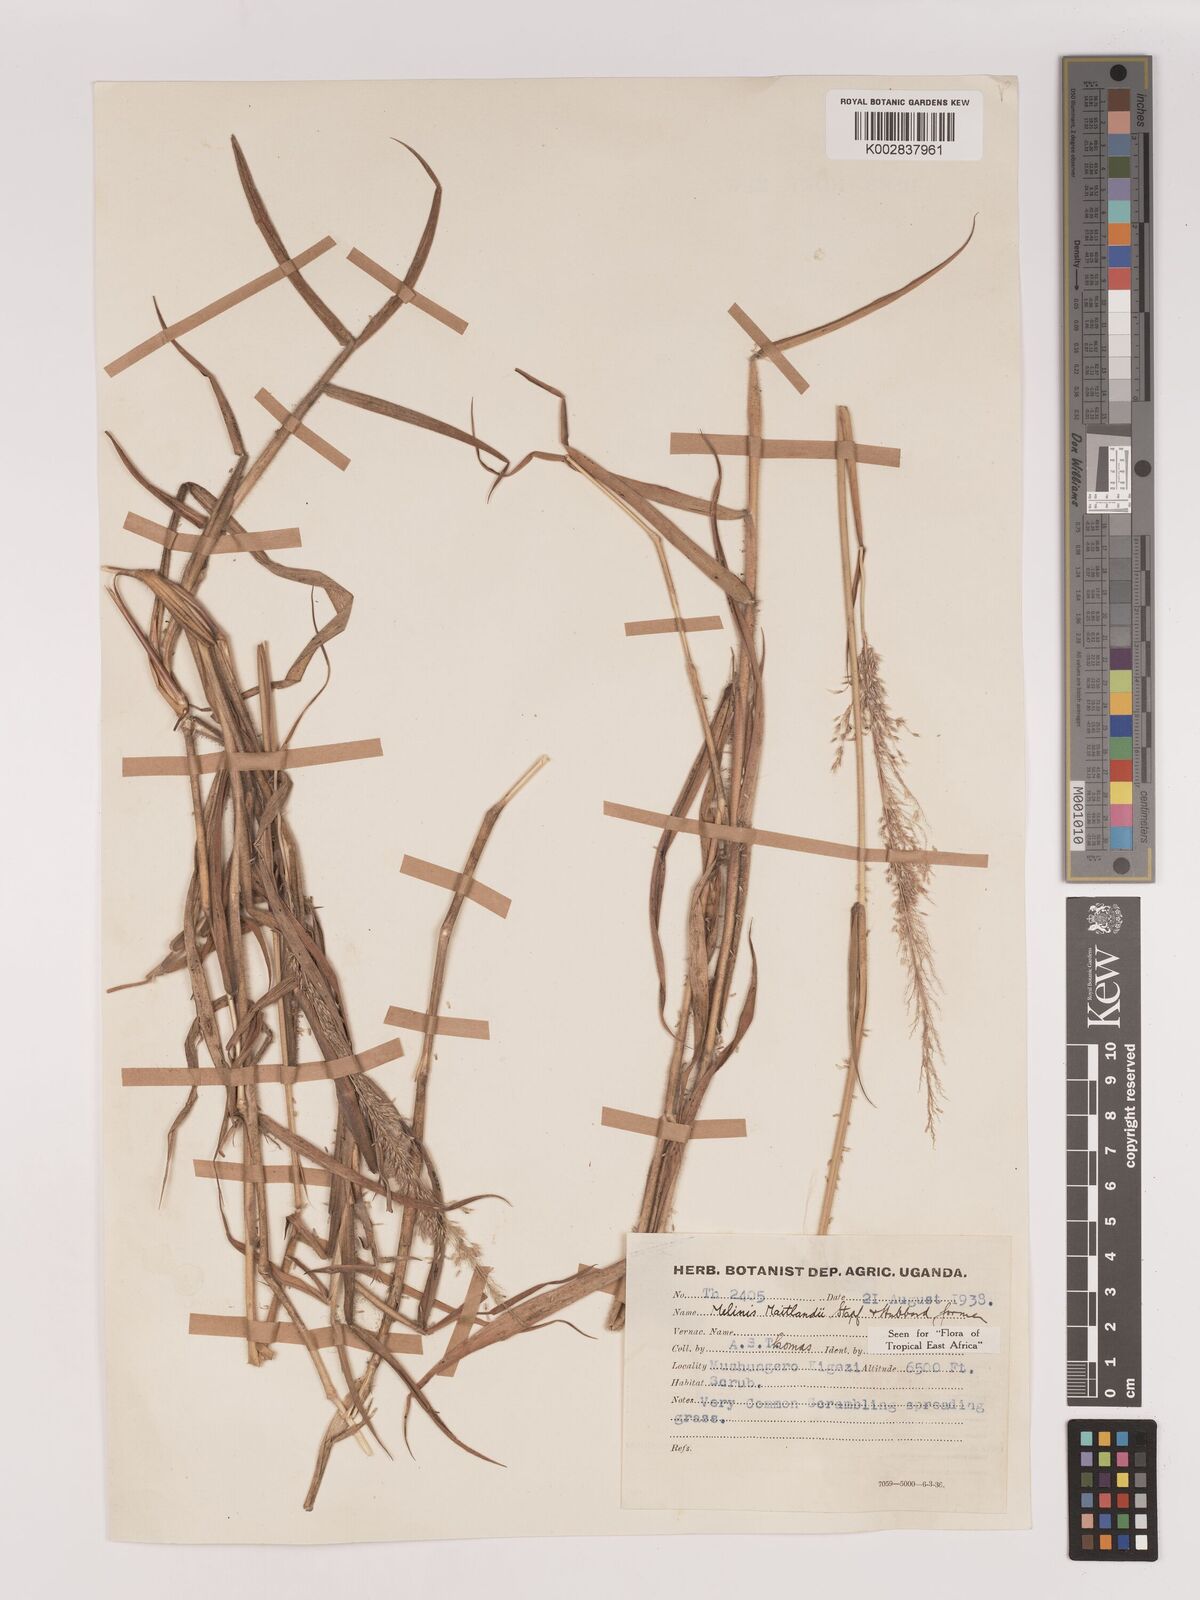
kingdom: Plantae
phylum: Tracheophyta
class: Liliopsida
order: Poales
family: Poaceae
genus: Melinis
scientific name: Melinis minutiflora
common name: Molassesgrass
